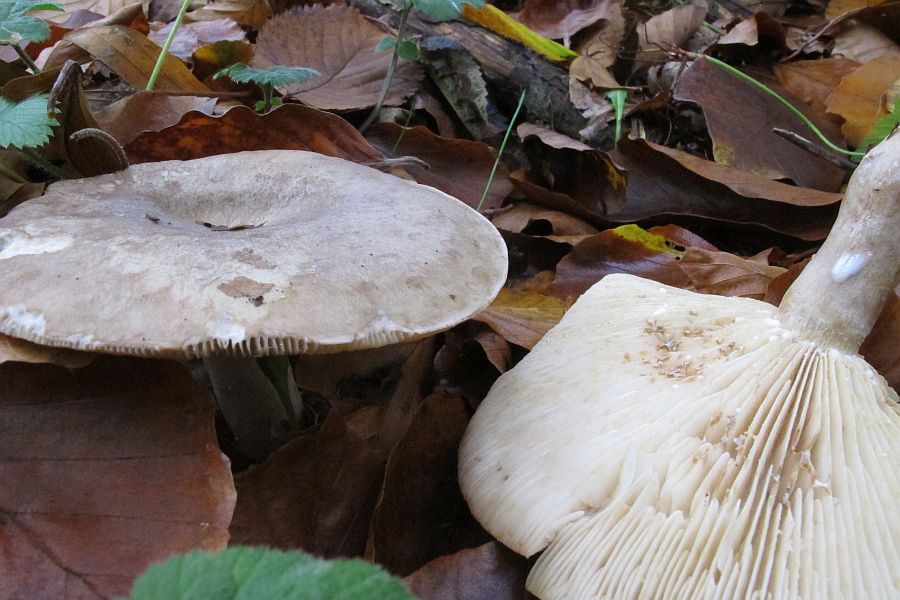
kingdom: Fungi
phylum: Basidiomycota
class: Agaricomycetes
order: Russulales
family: Russulaceae
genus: Lactarius
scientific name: Lactarius fluens
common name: lysrandet mælkehat
